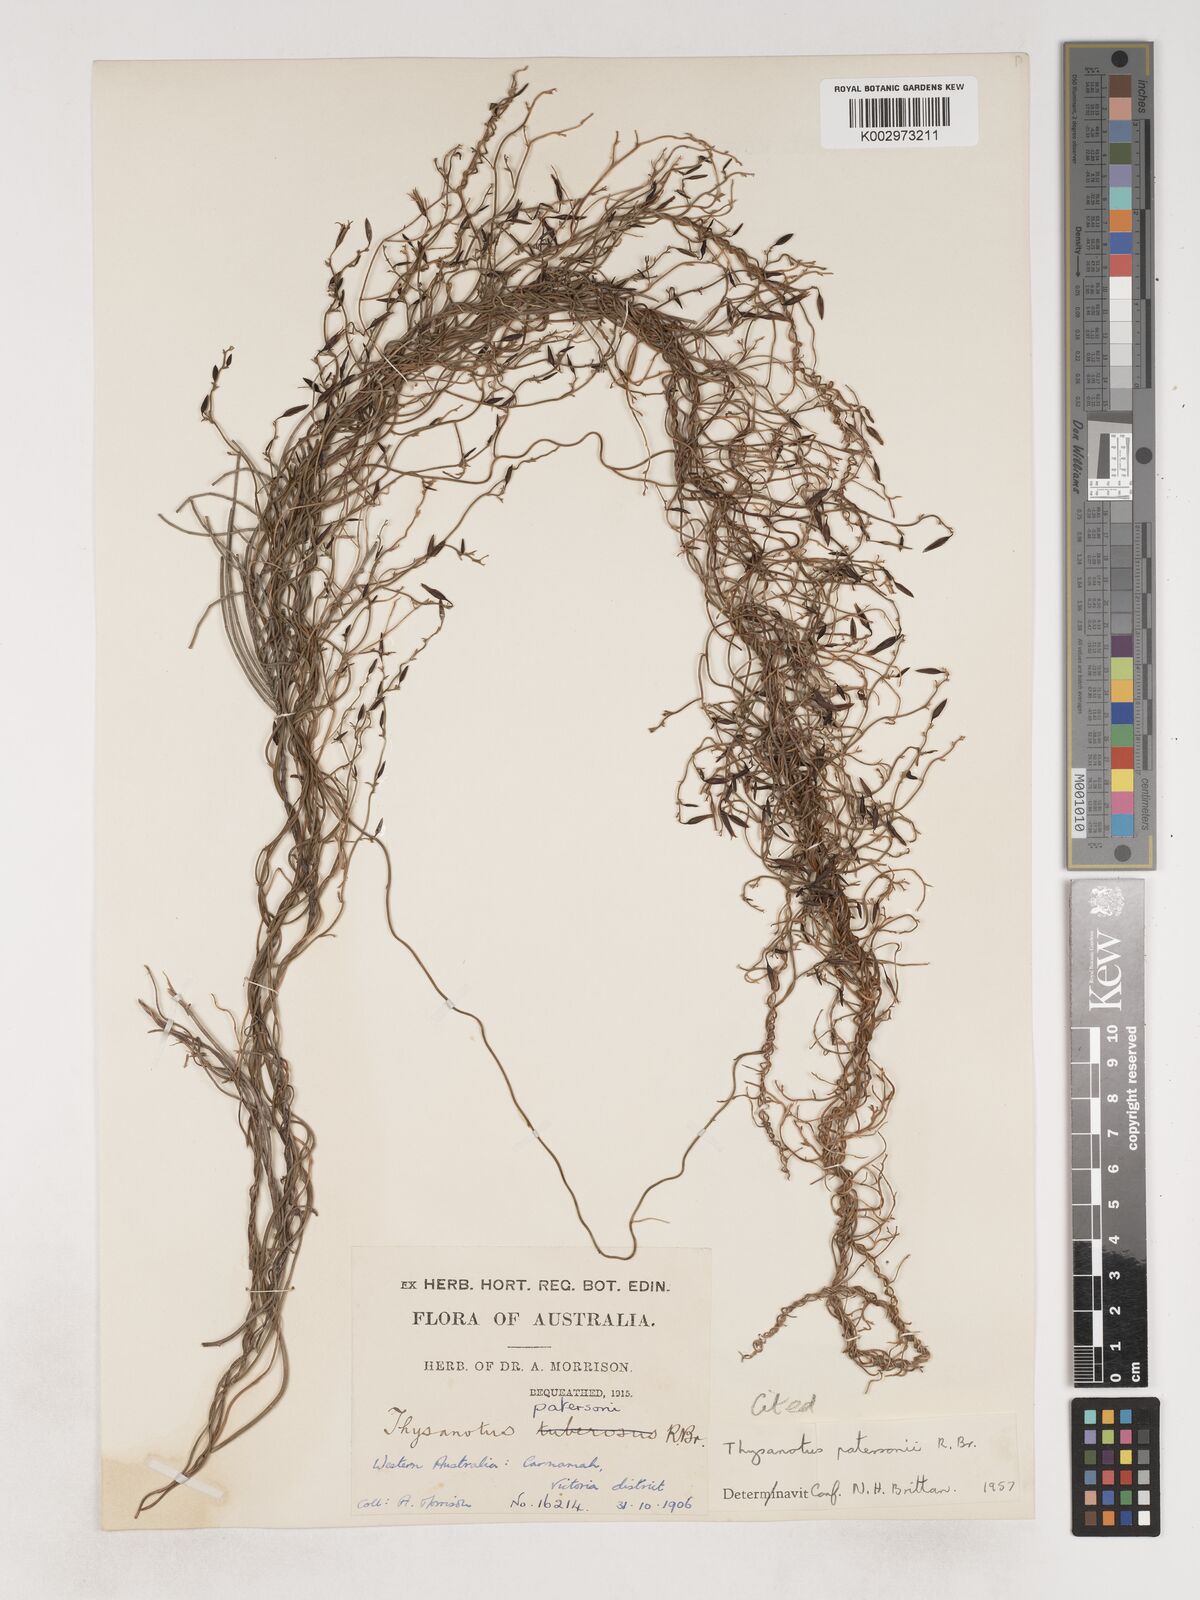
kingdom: Plantae
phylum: Tracheophyta
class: Liliopsida
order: Asparagales
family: Asparagaceae
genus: Thysanotus
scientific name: Thysanotus patersonii
